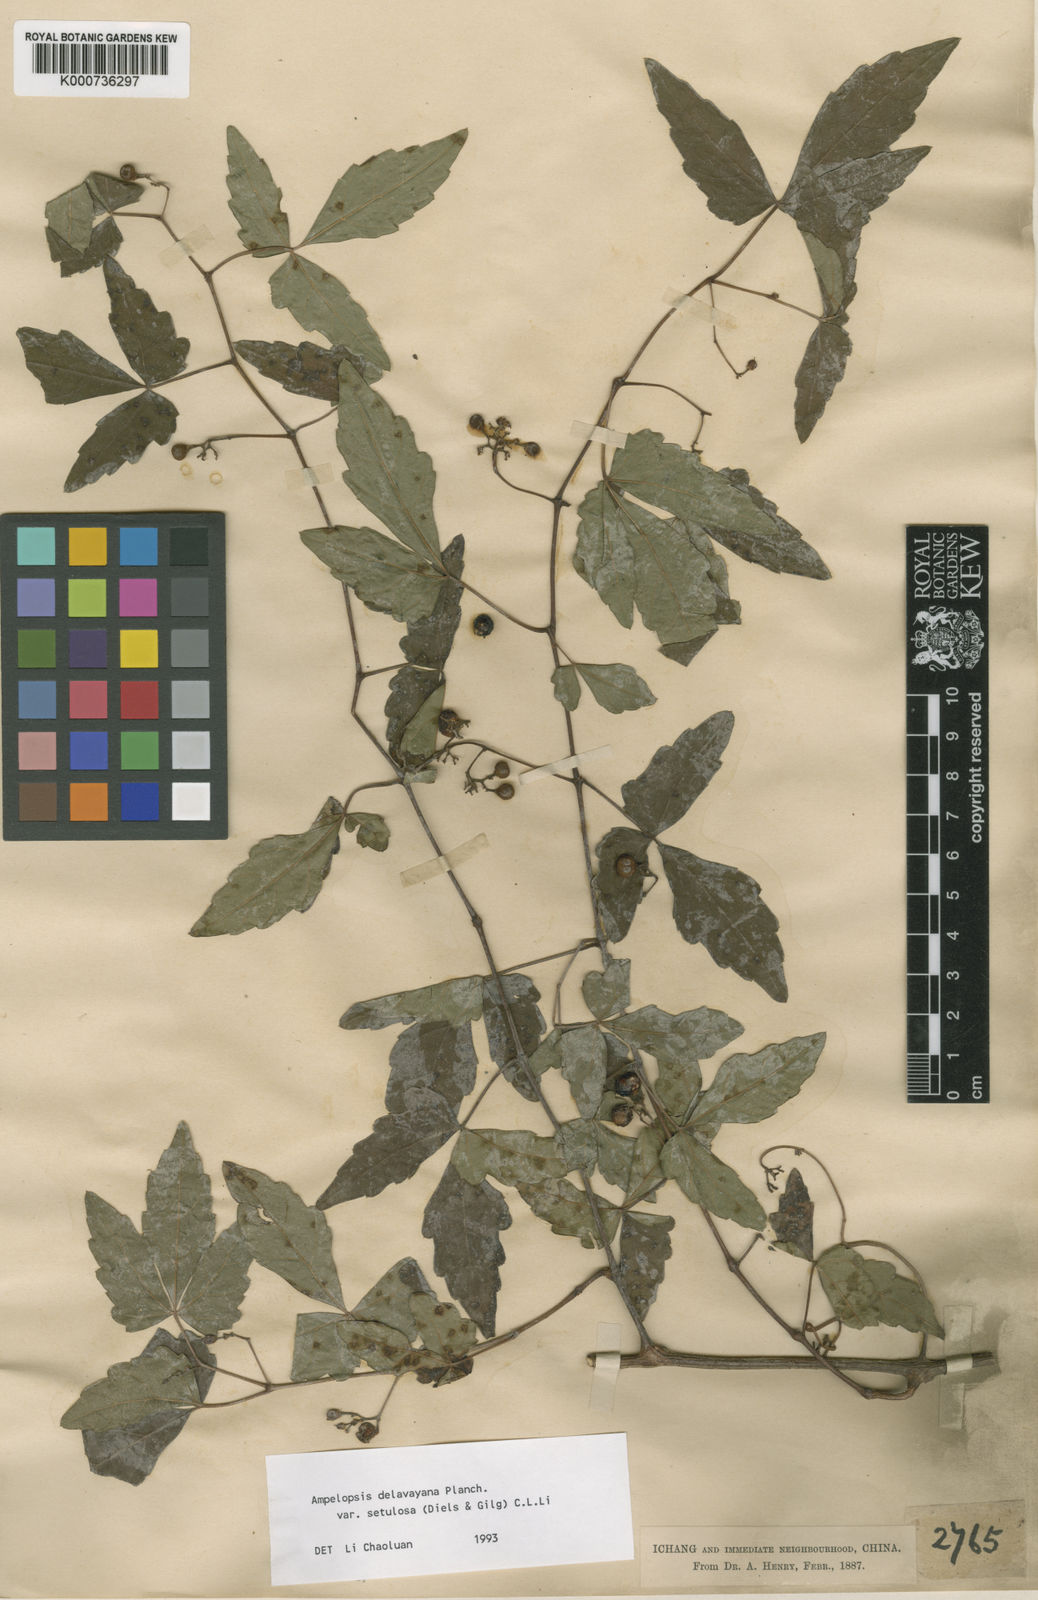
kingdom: Plantae
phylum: Tracheophyta
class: Magnoliopsida
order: Vitales
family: Vitaceae
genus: Ampelopsis
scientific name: Ampelopsis delavayana
